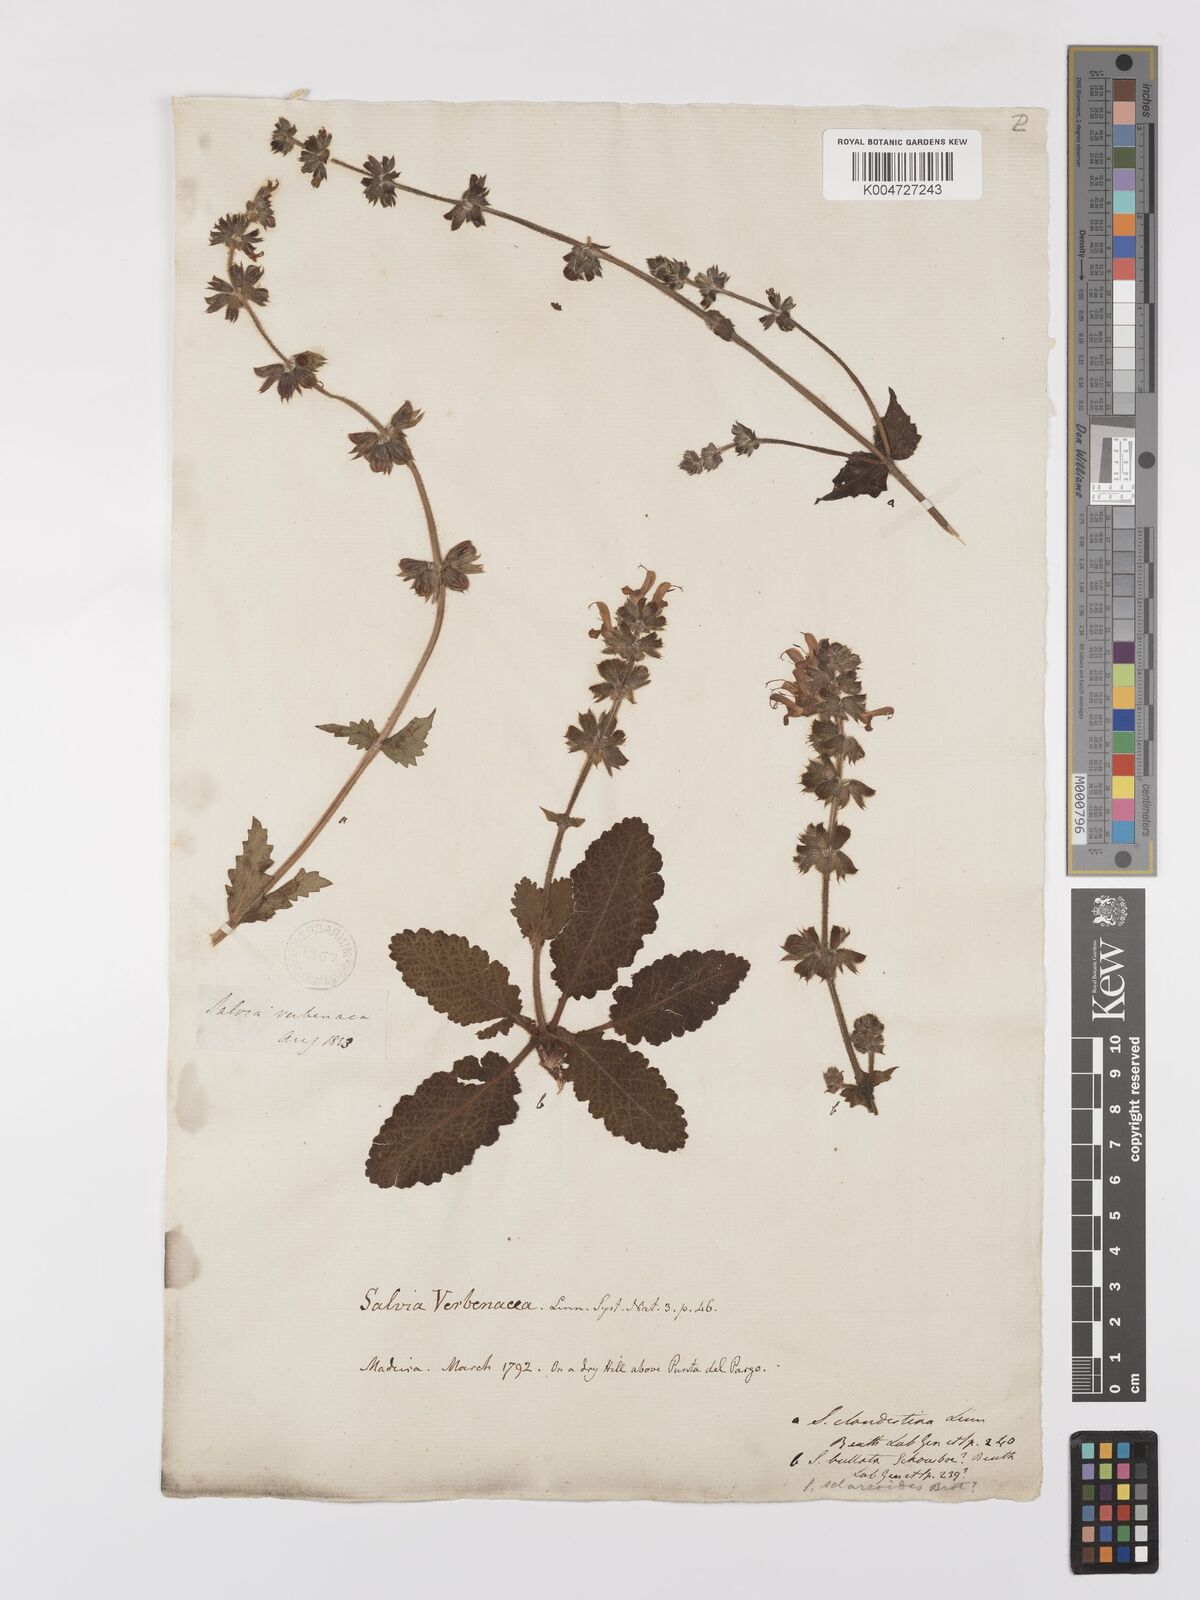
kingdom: Plantae
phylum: Tracheophyta
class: Magnoliopsida
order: Lamiales
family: Lamiaceae
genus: Salvia
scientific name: Salvia verbenaca
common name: Wild clary
